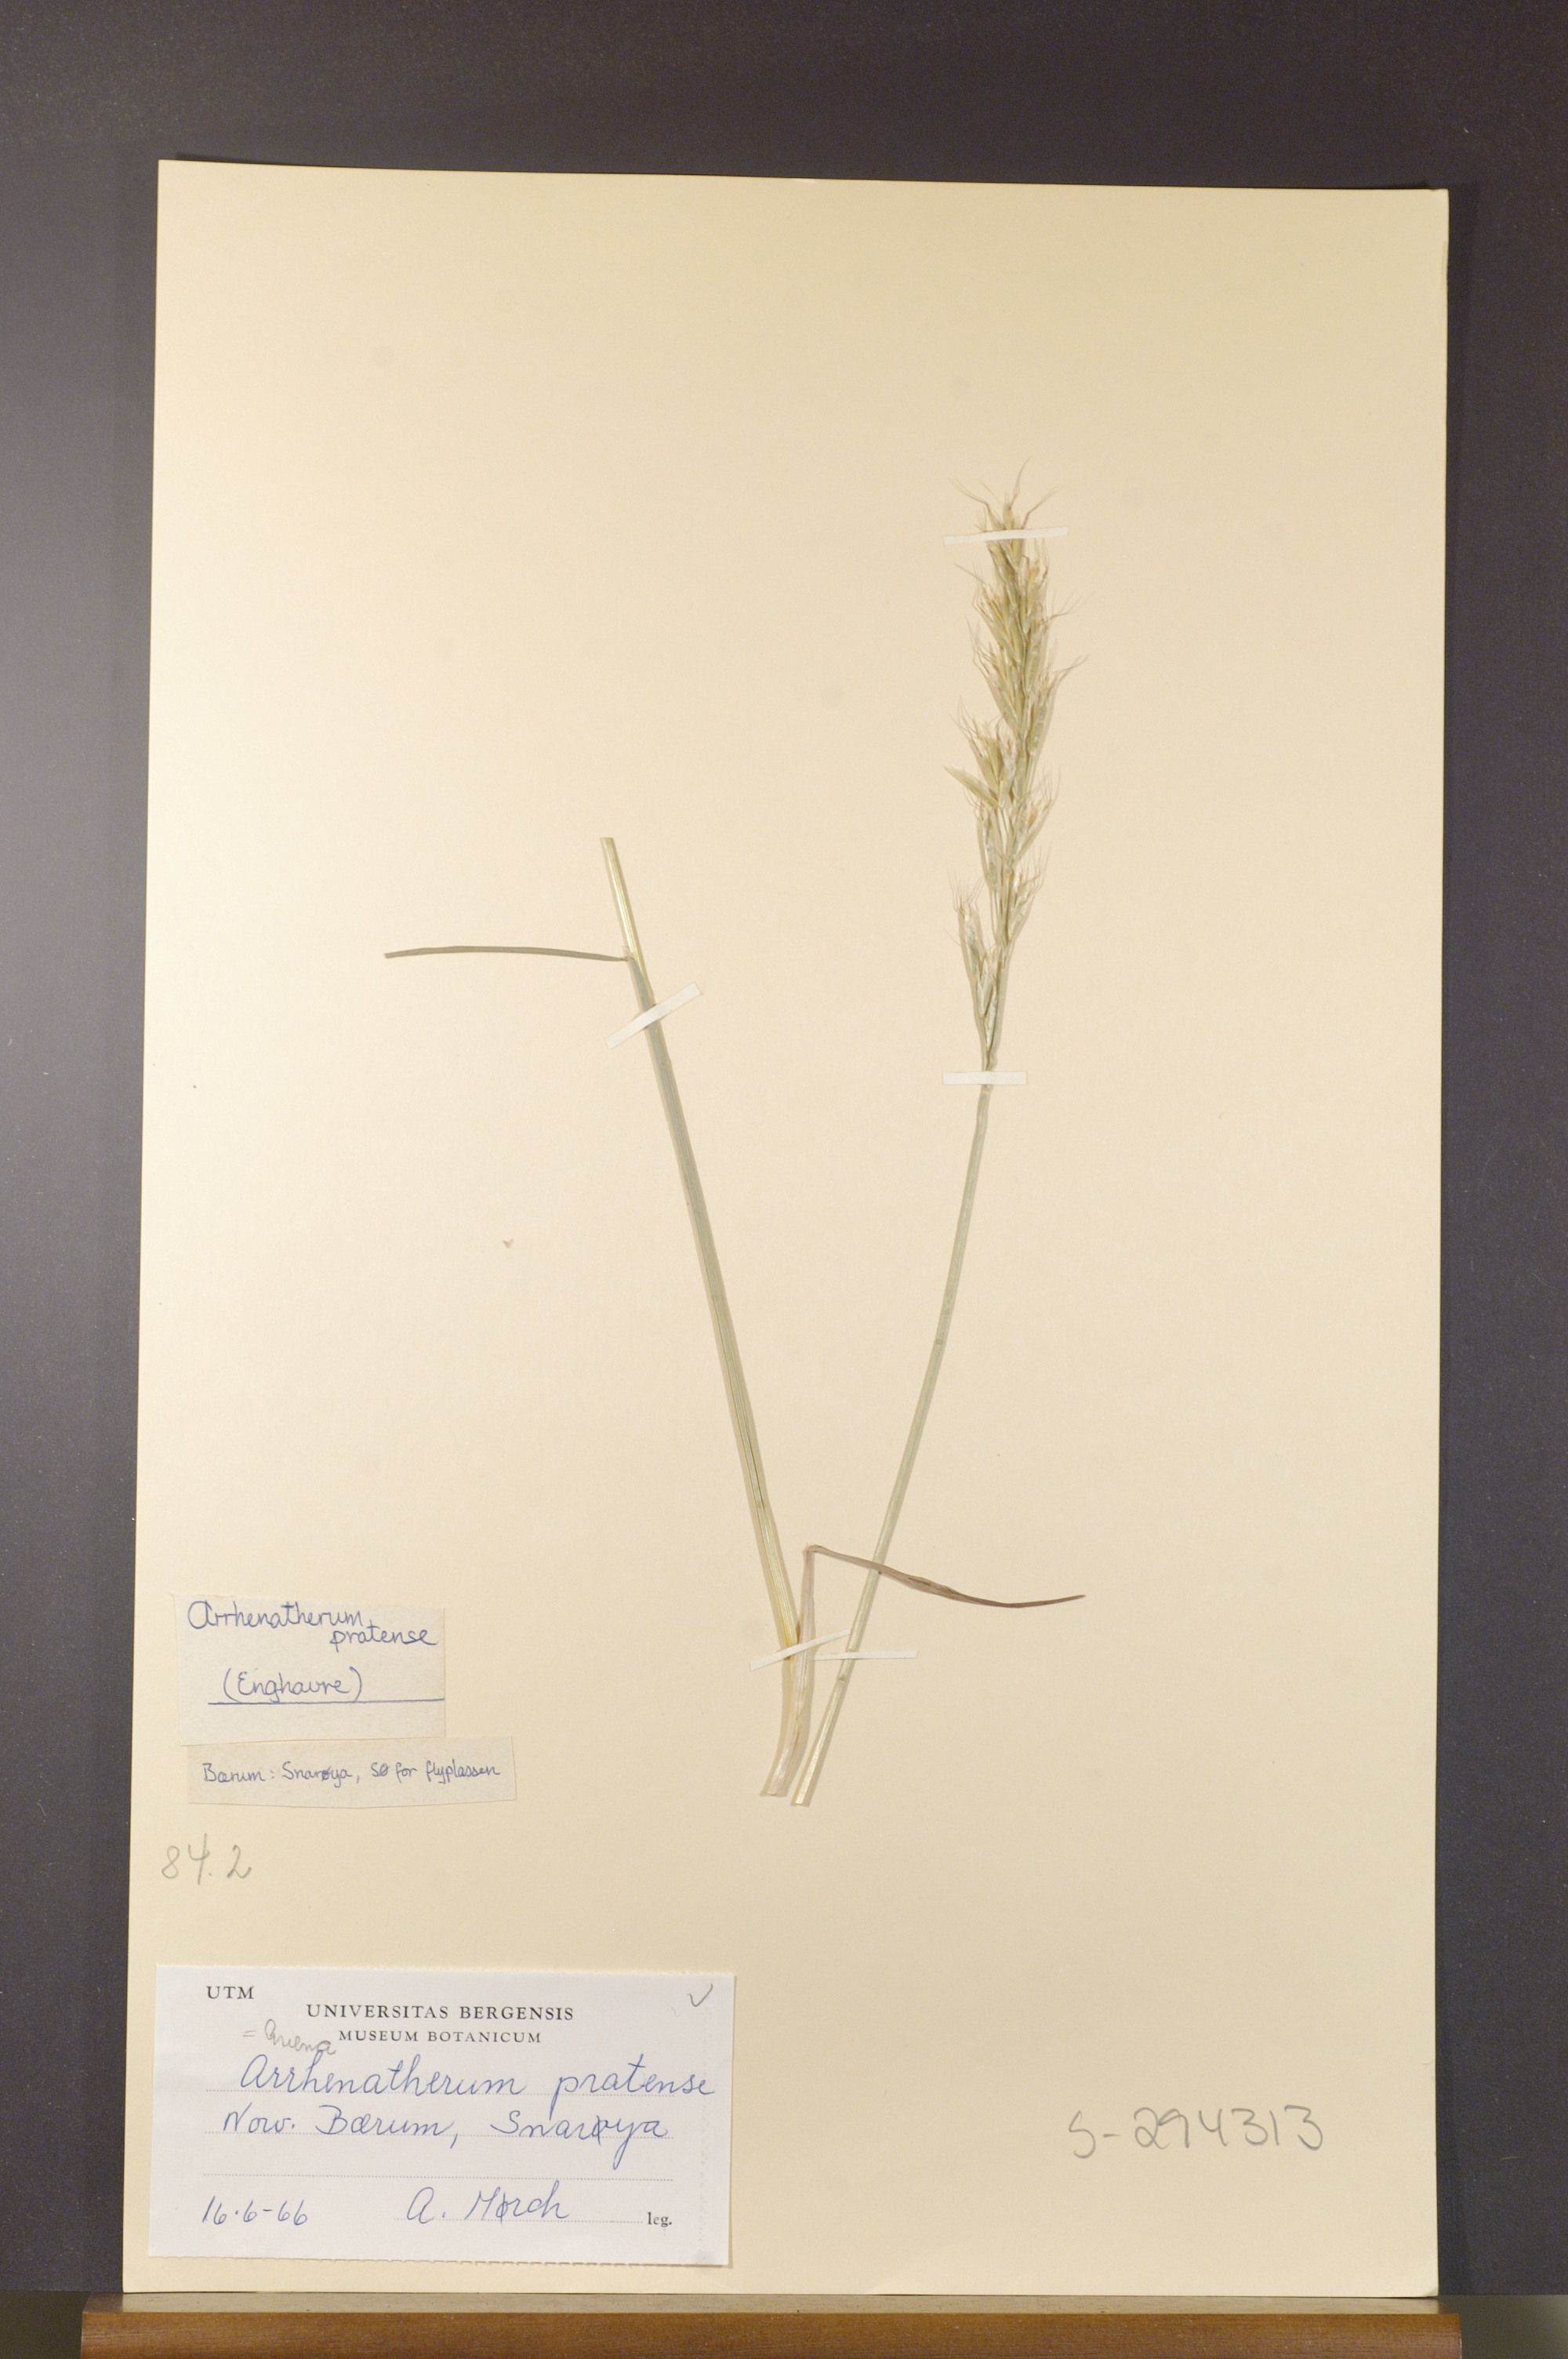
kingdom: Plantae
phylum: Tracheophyta
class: Liliopsida
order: Poales
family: Poaceae
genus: Helictochloa
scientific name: Helictochloa pratensis
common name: Meadow oat grass
